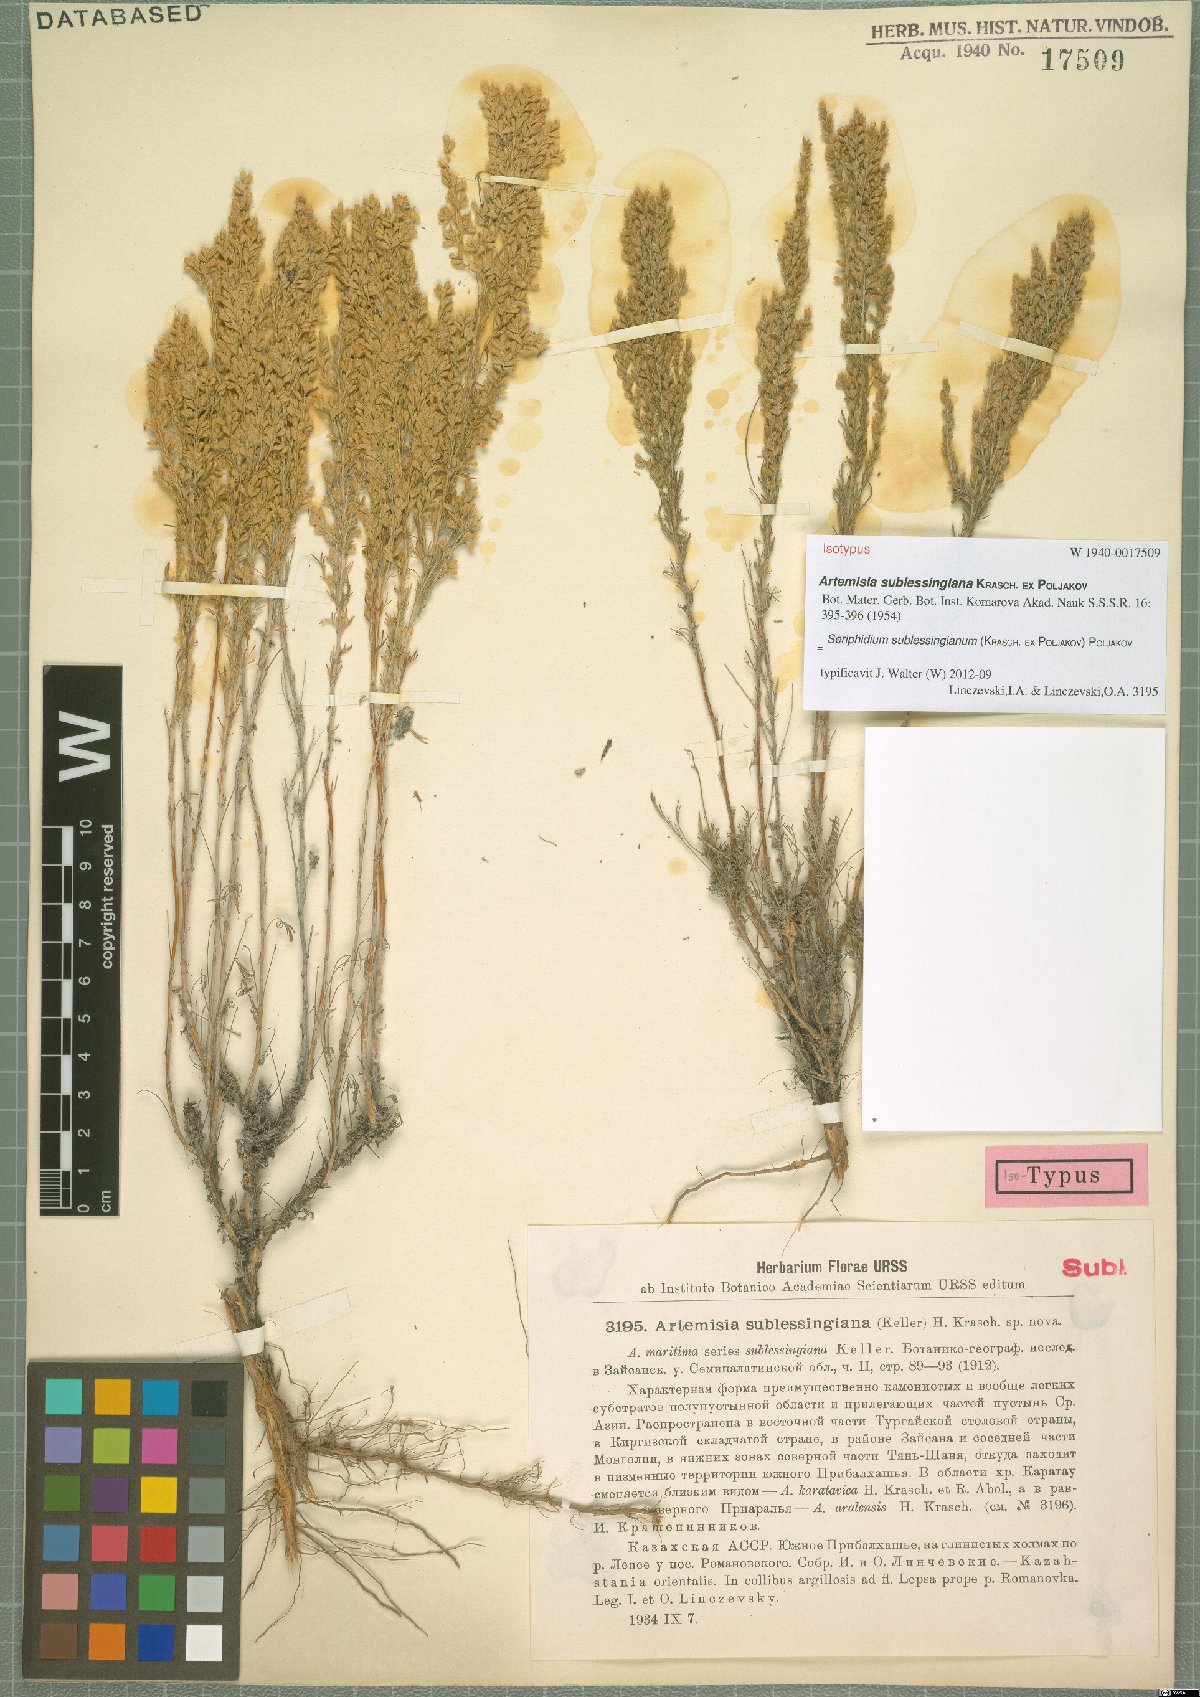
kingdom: Plantae
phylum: Tracheophyta
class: Magnoliopsida
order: Asterales
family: Asteraceae
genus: Artemisia
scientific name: Artemisia sublessingiana
